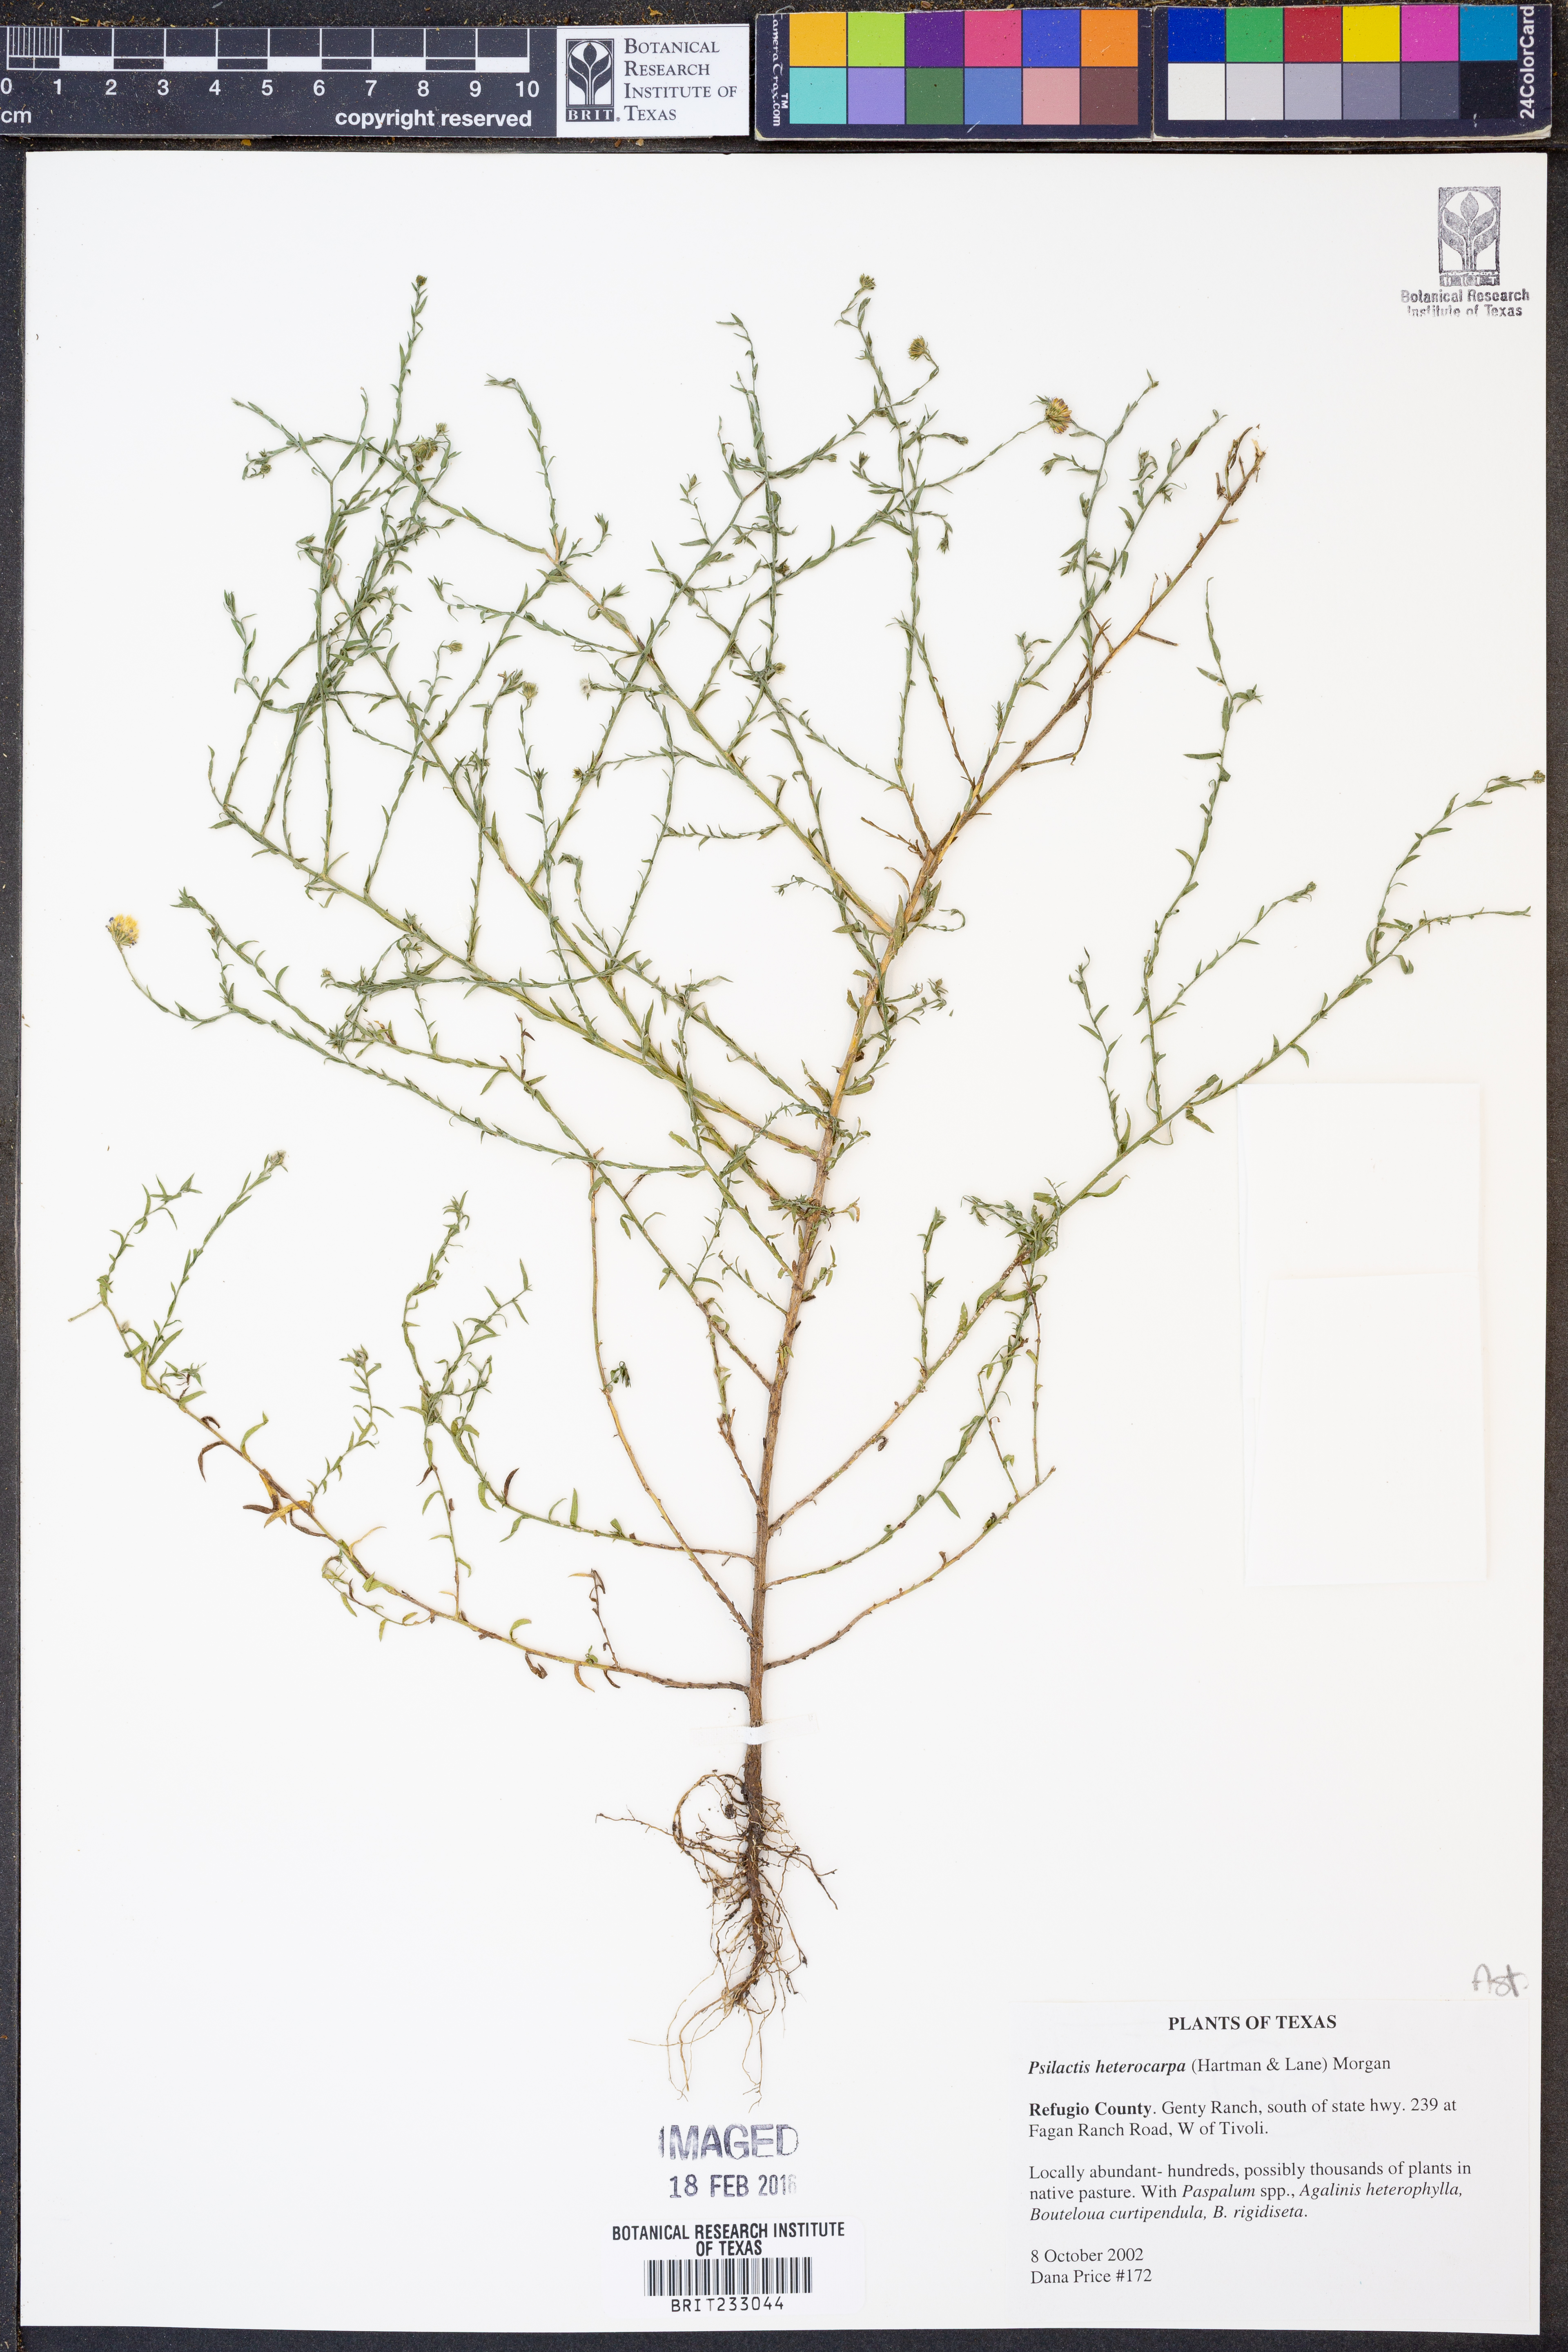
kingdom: Plantae
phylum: Tracheophyta
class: Magnoliopsida
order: Asterales
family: Asteraceae
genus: Psilactis
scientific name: Psilactis heterocarpa
